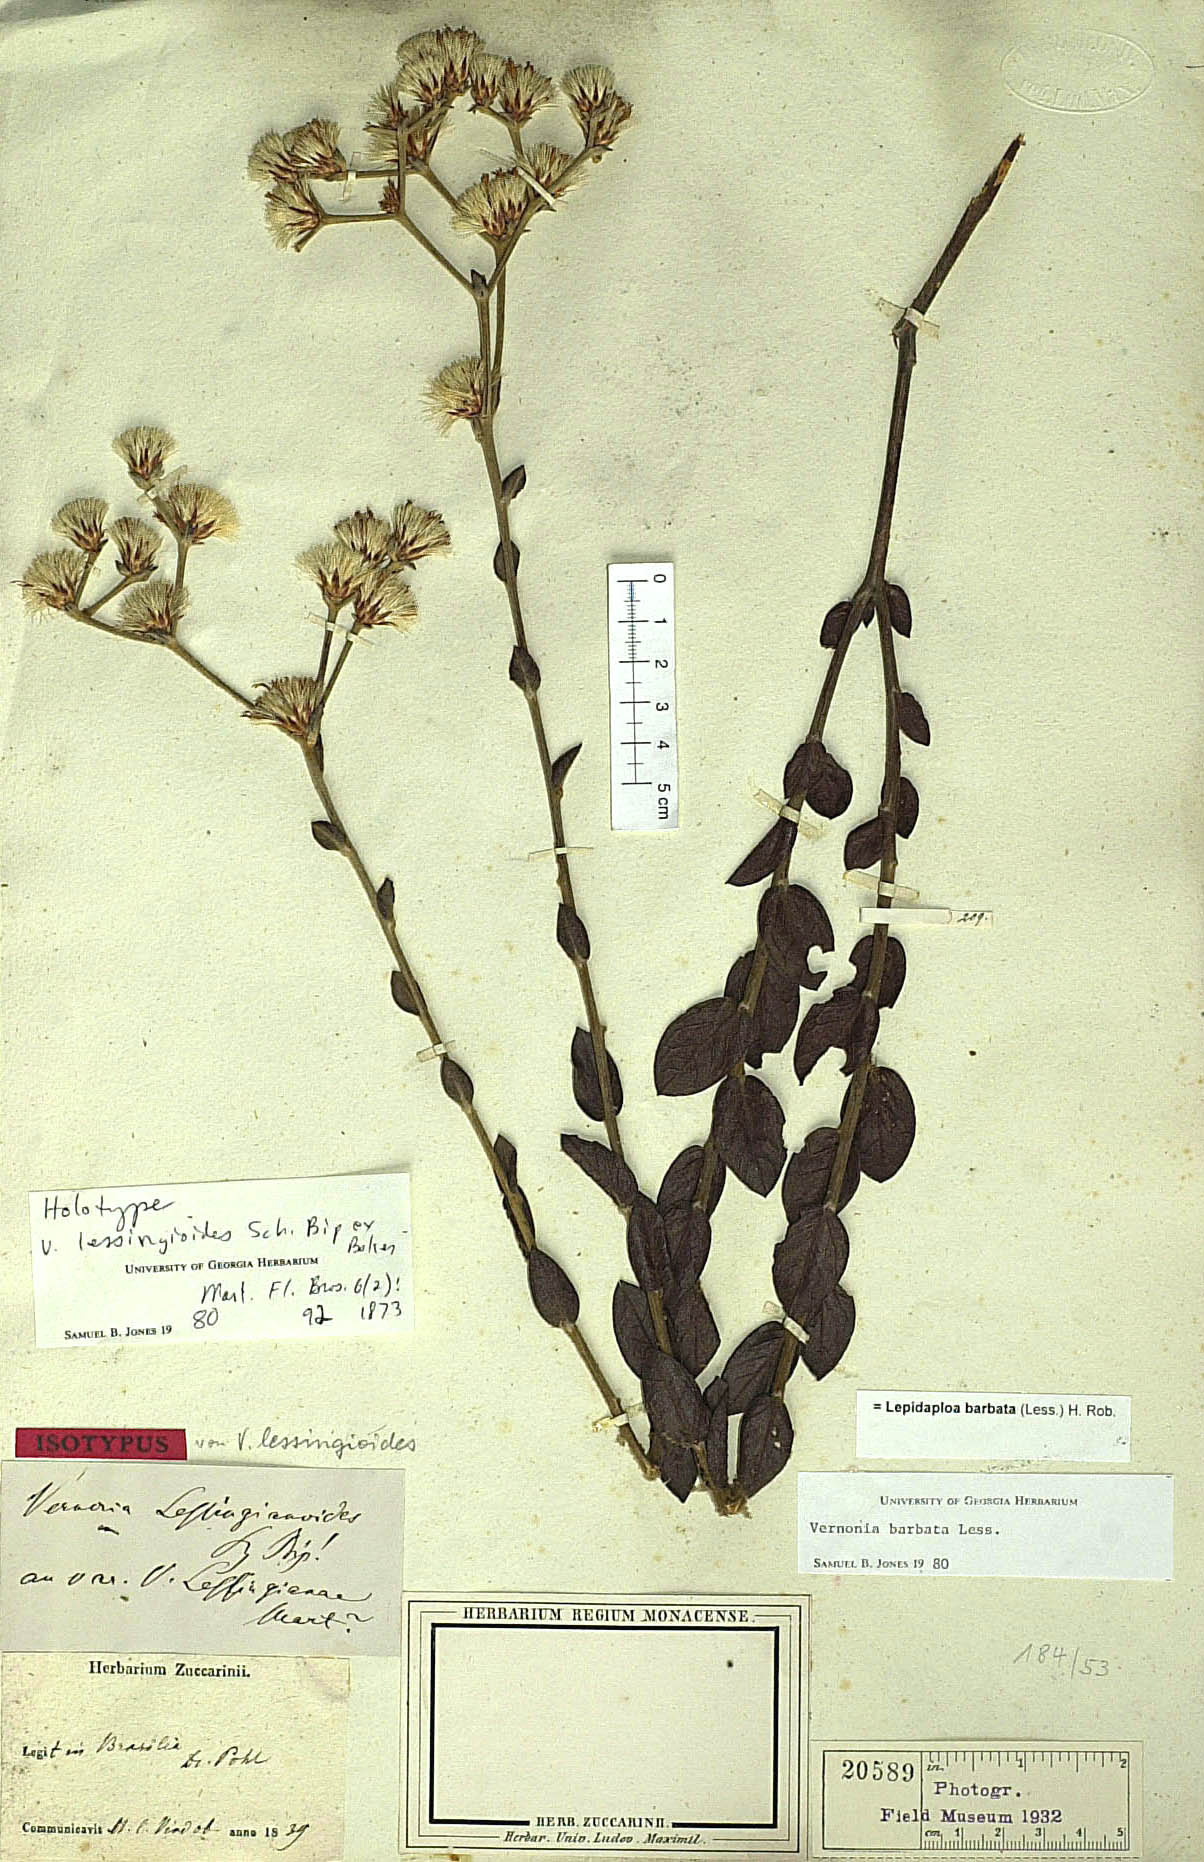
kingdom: Plantae
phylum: Tracheophyta
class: Magnoliopsida
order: Asterales
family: Asteraceae
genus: Lepidaploa
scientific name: Lepidaploa barbata
